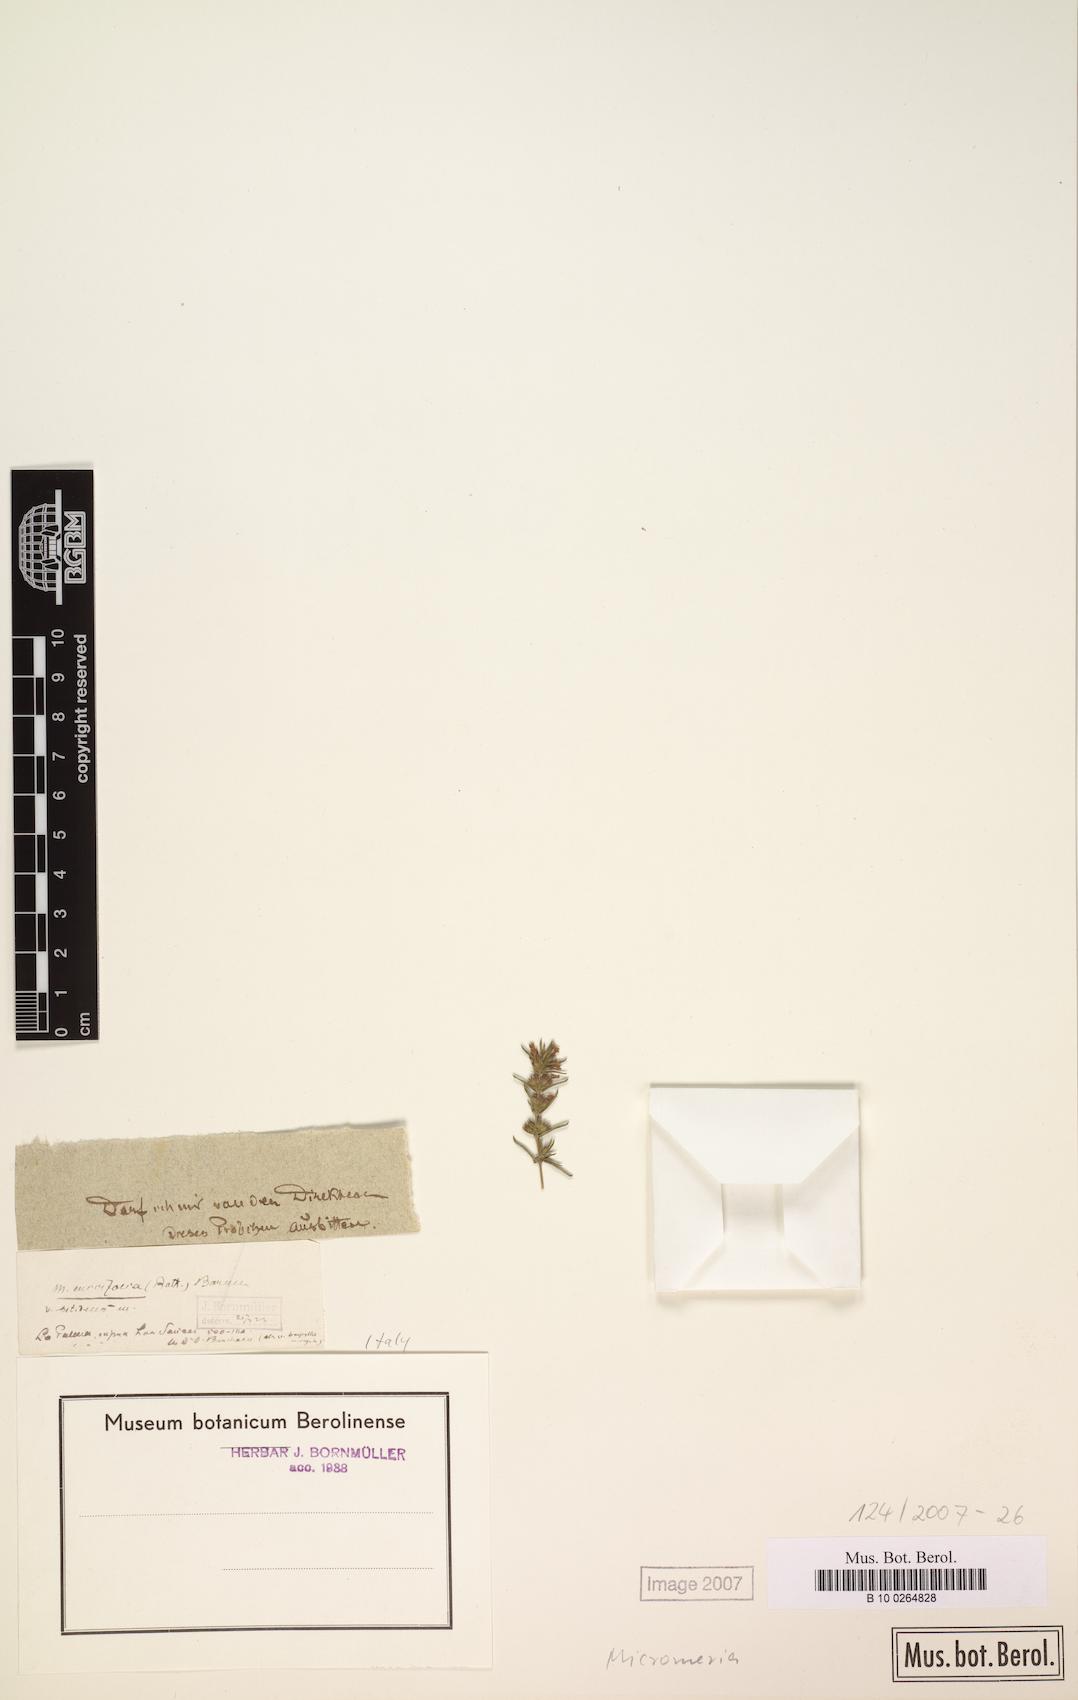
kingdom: Plantae
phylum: Tracheophyta
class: Magnoliopsida
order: Lamiales
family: Lamiaceae
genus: Micromeria
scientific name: Micromeria
